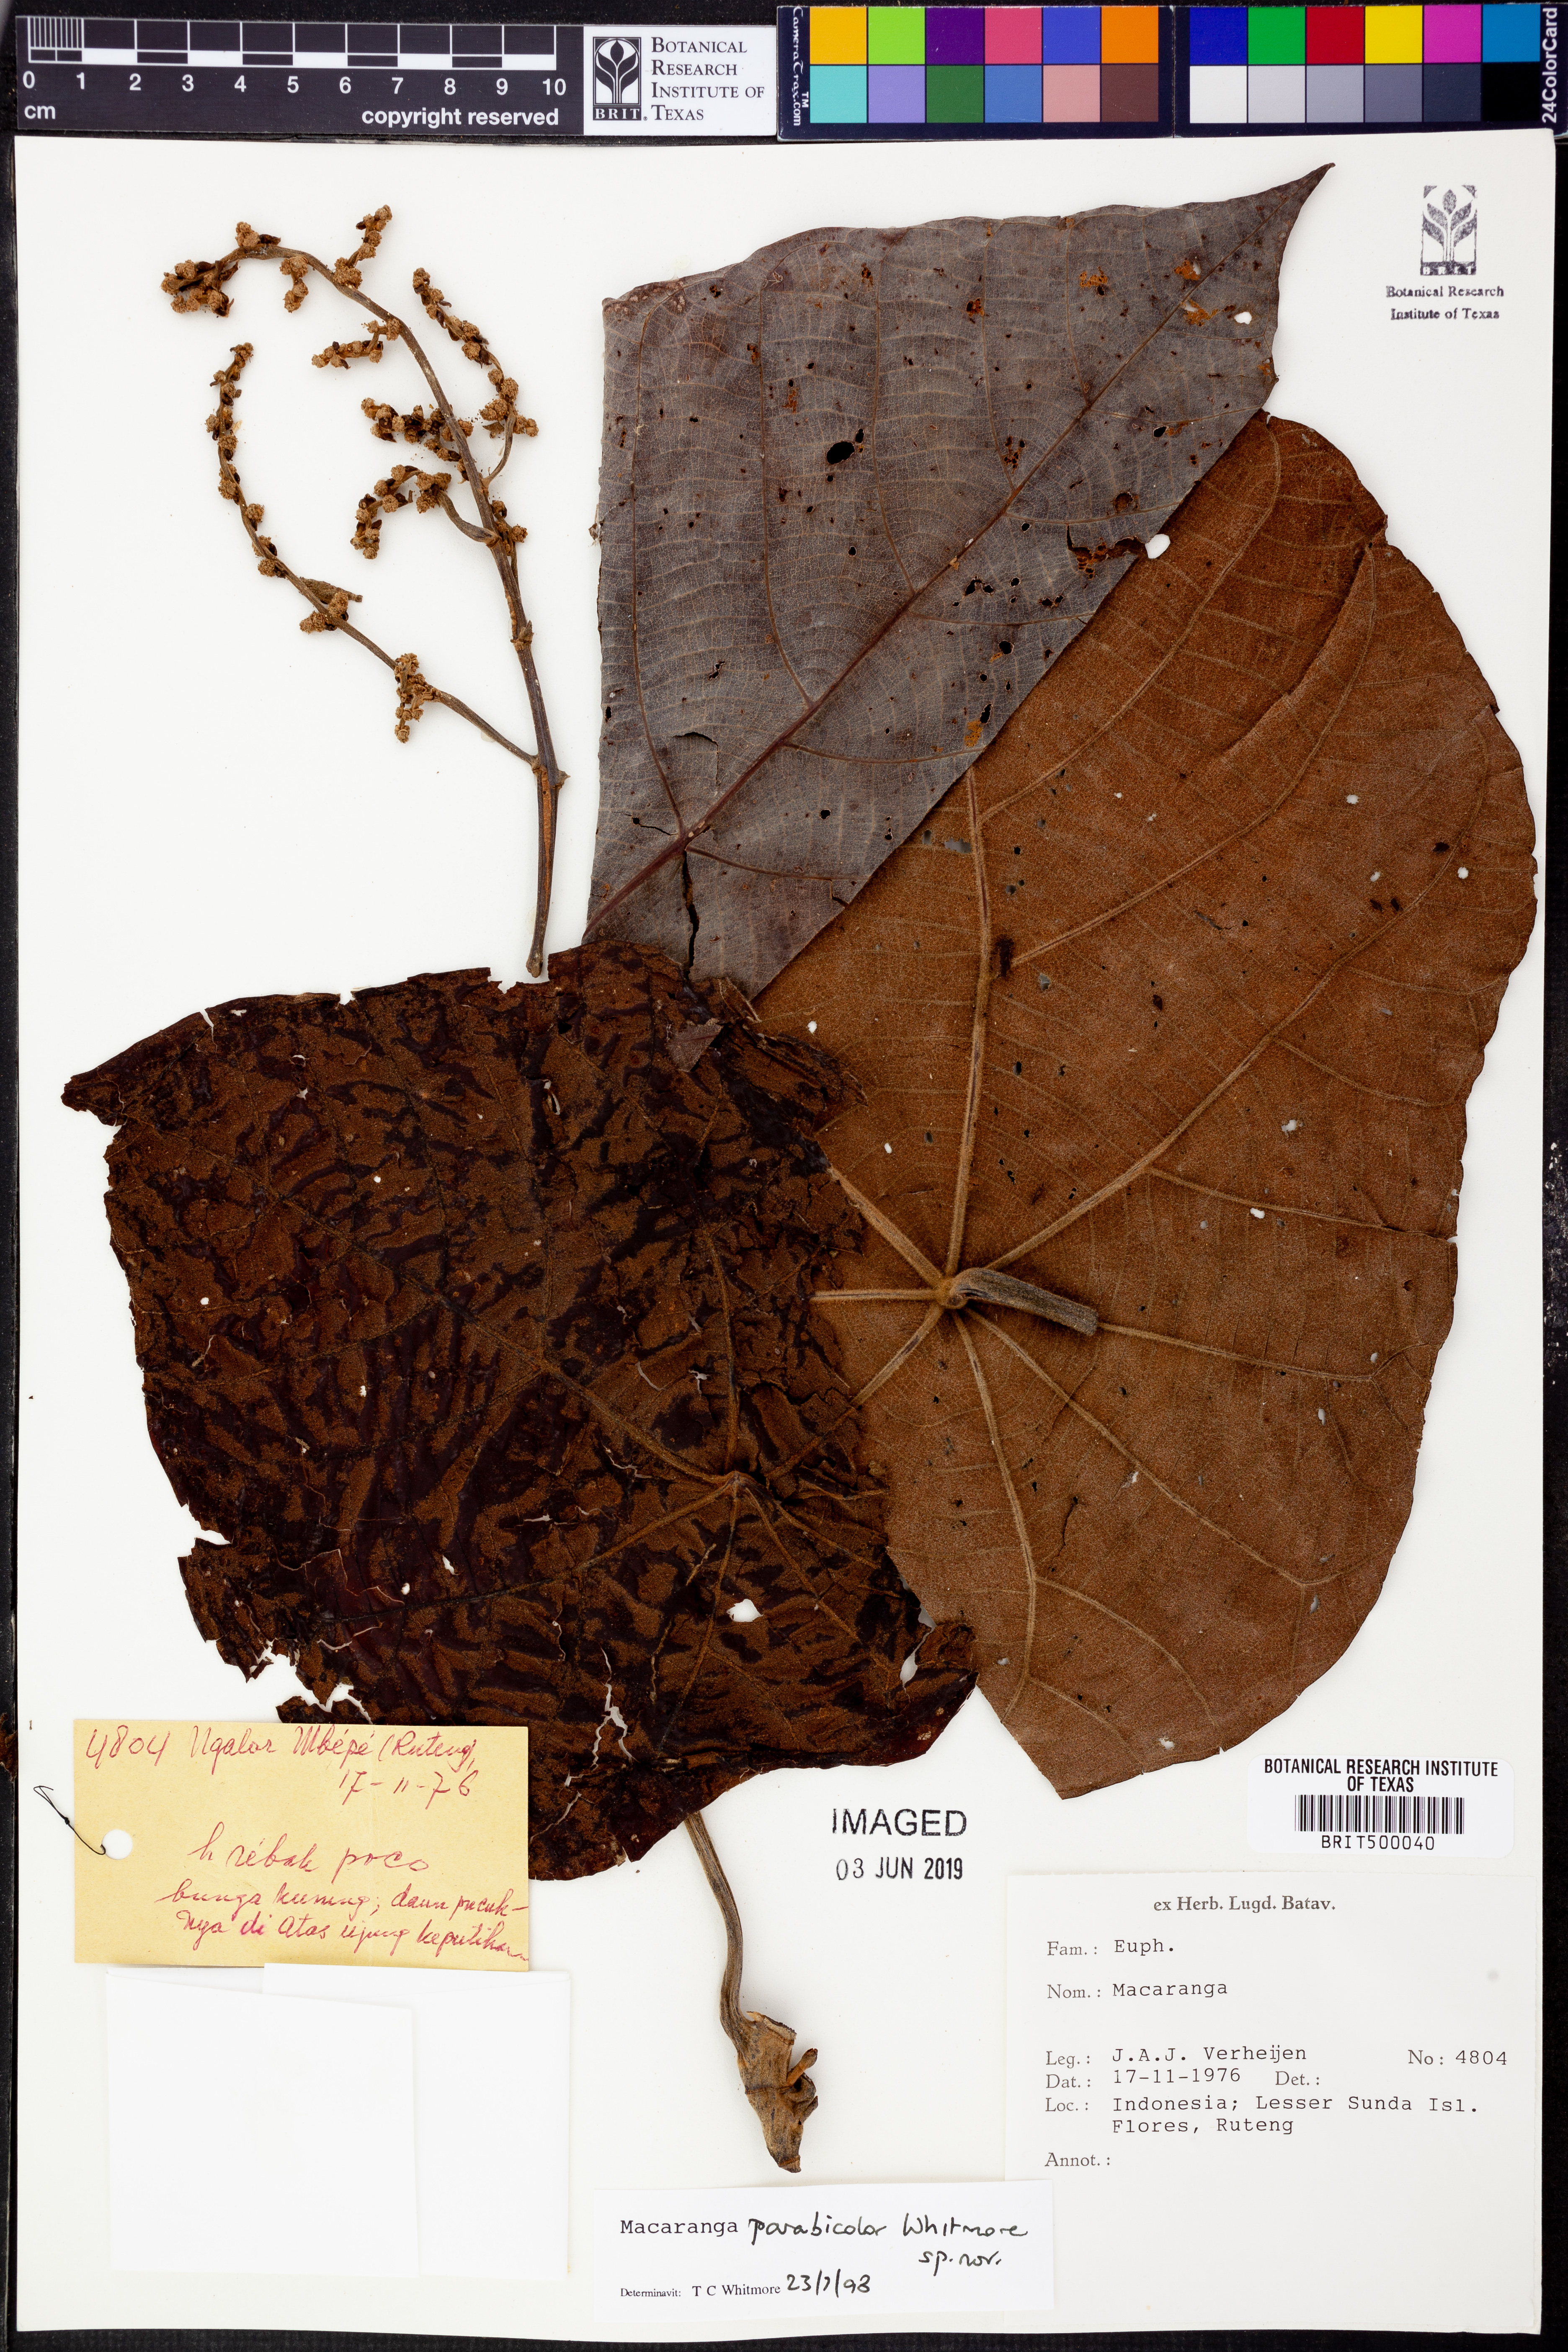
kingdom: Plantae
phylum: Tracheophyta
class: Magnoliopsida
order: Malpighiales
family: Euphorbiaceae
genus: Macaranga
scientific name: Macaranga parabicolor
